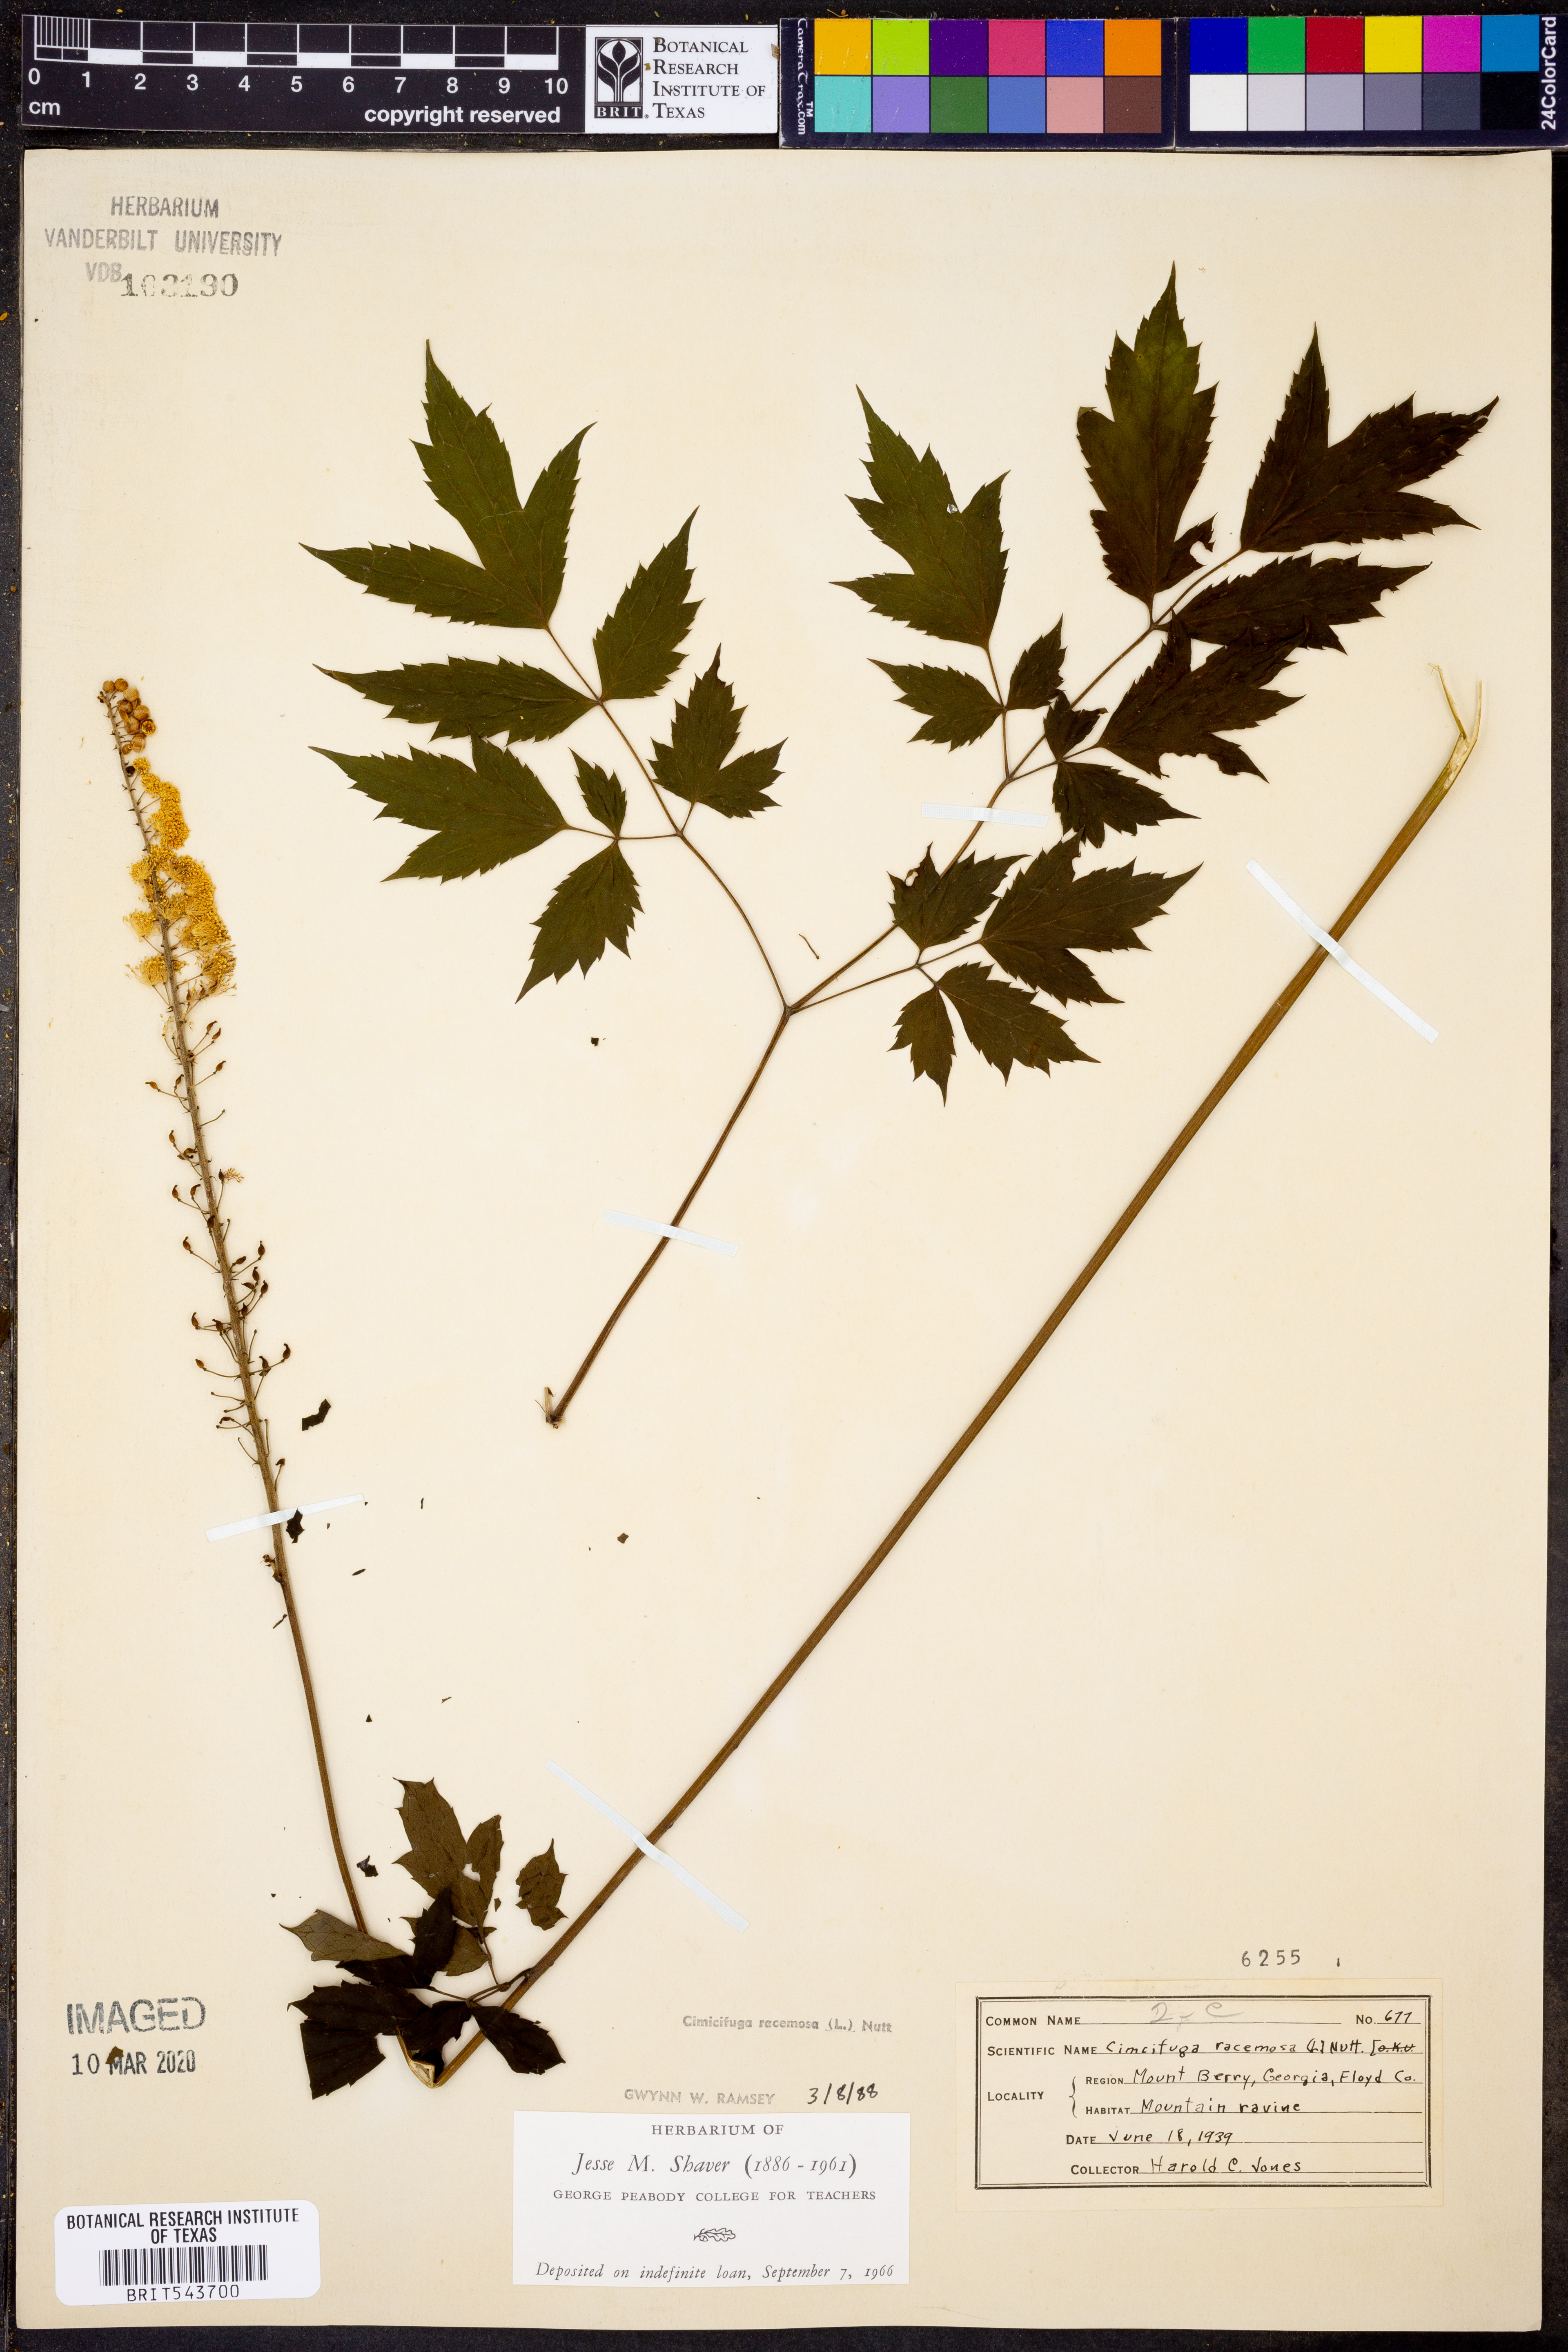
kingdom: Plantae
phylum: Tracheophyta
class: Magnoliopsida
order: Ranunculales
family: Ranunculaceae
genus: Actaea
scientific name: Actaea racemosa
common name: Black cohosh
